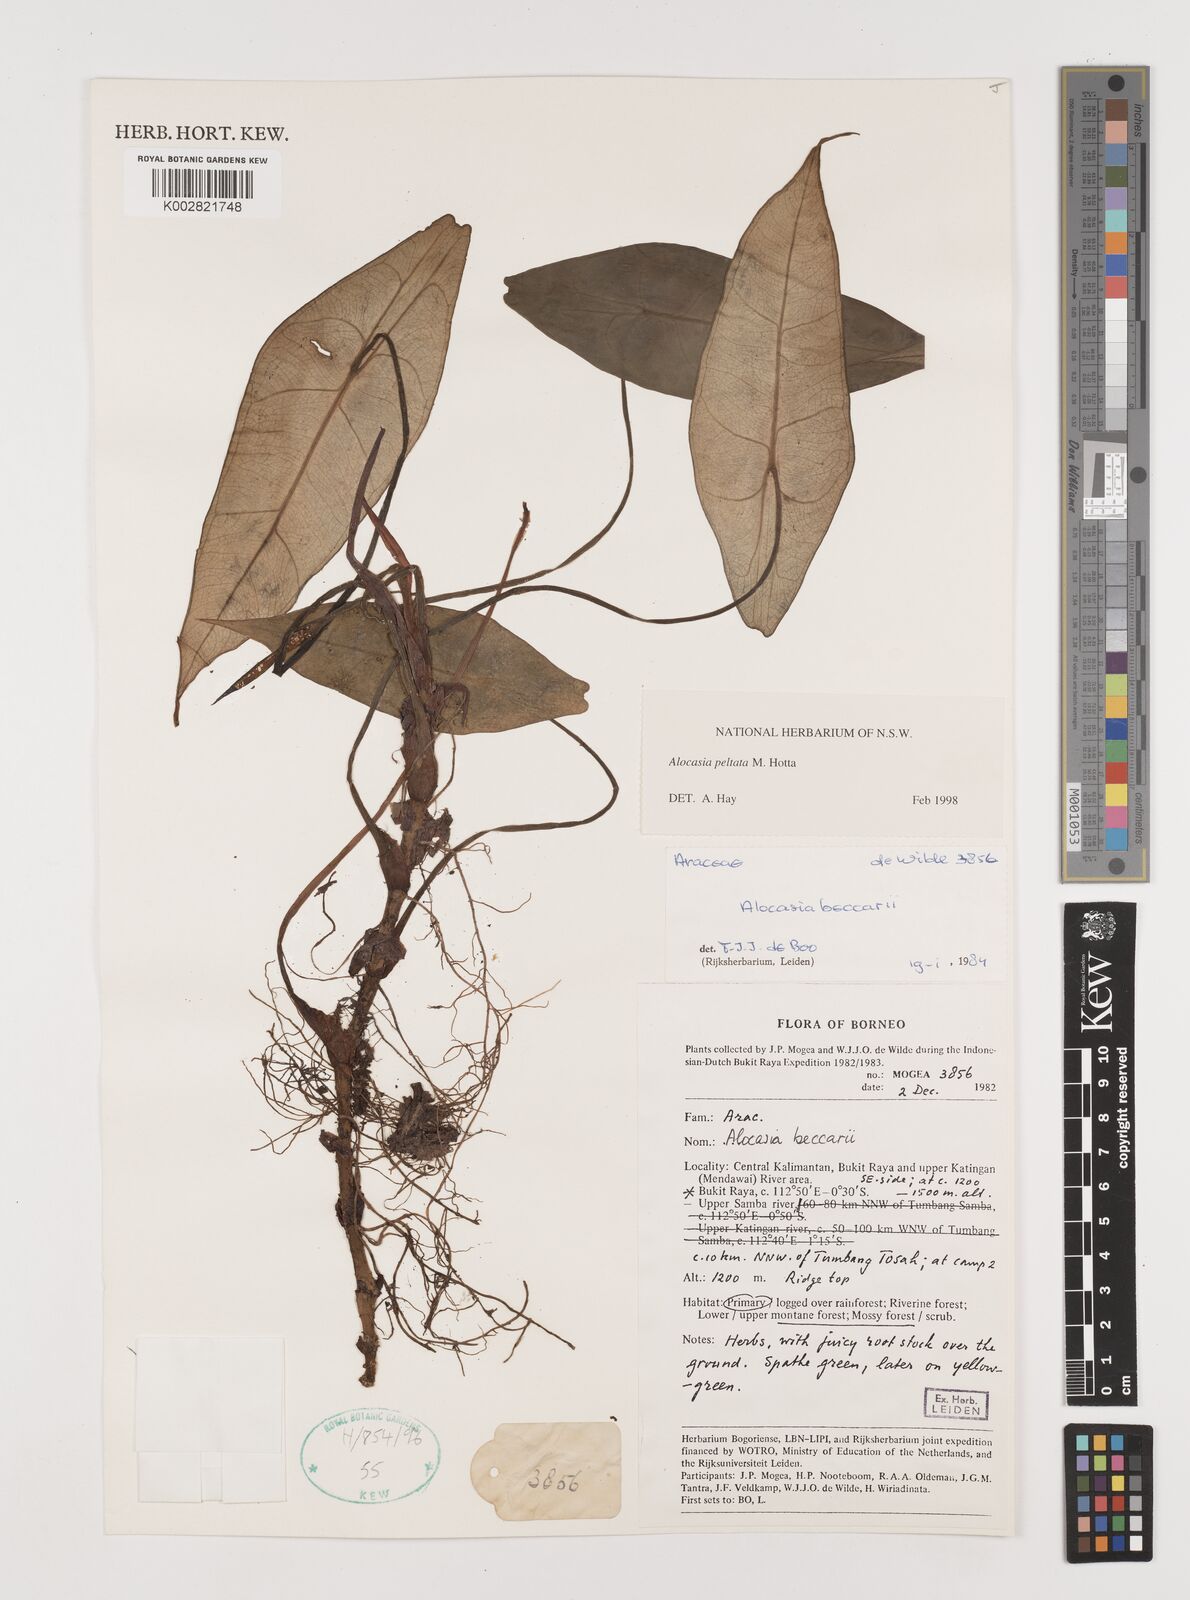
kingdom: Plantae
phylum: Tracheophyta
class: Liliopsida
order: Alismatales
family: Araceae
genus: Alocasia
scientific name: Alocasia peltata
